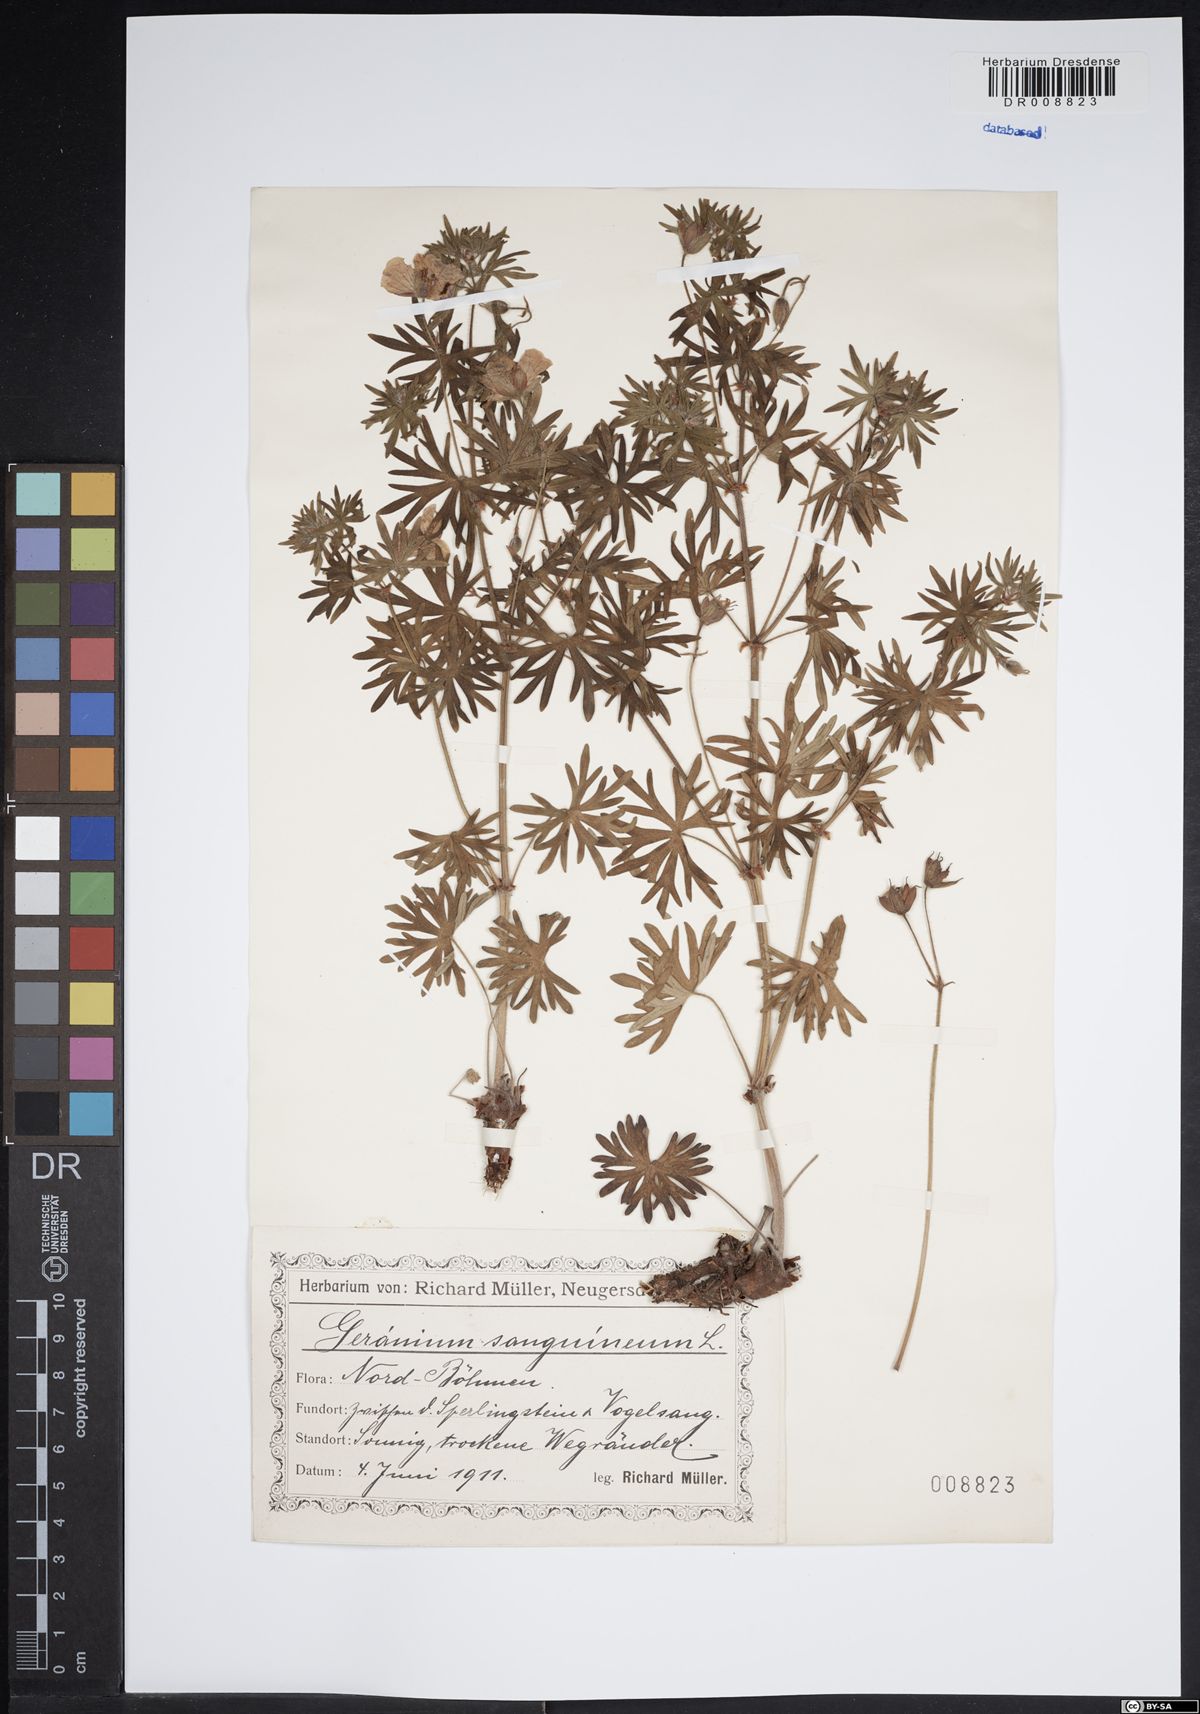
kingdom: Plantae
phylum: Tracheophyta
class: Magnoliopsida
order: Geraniales
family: Geraniaceae
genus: Geranium
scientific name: Geranium sanguineum
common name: Bloody crane's-bill
